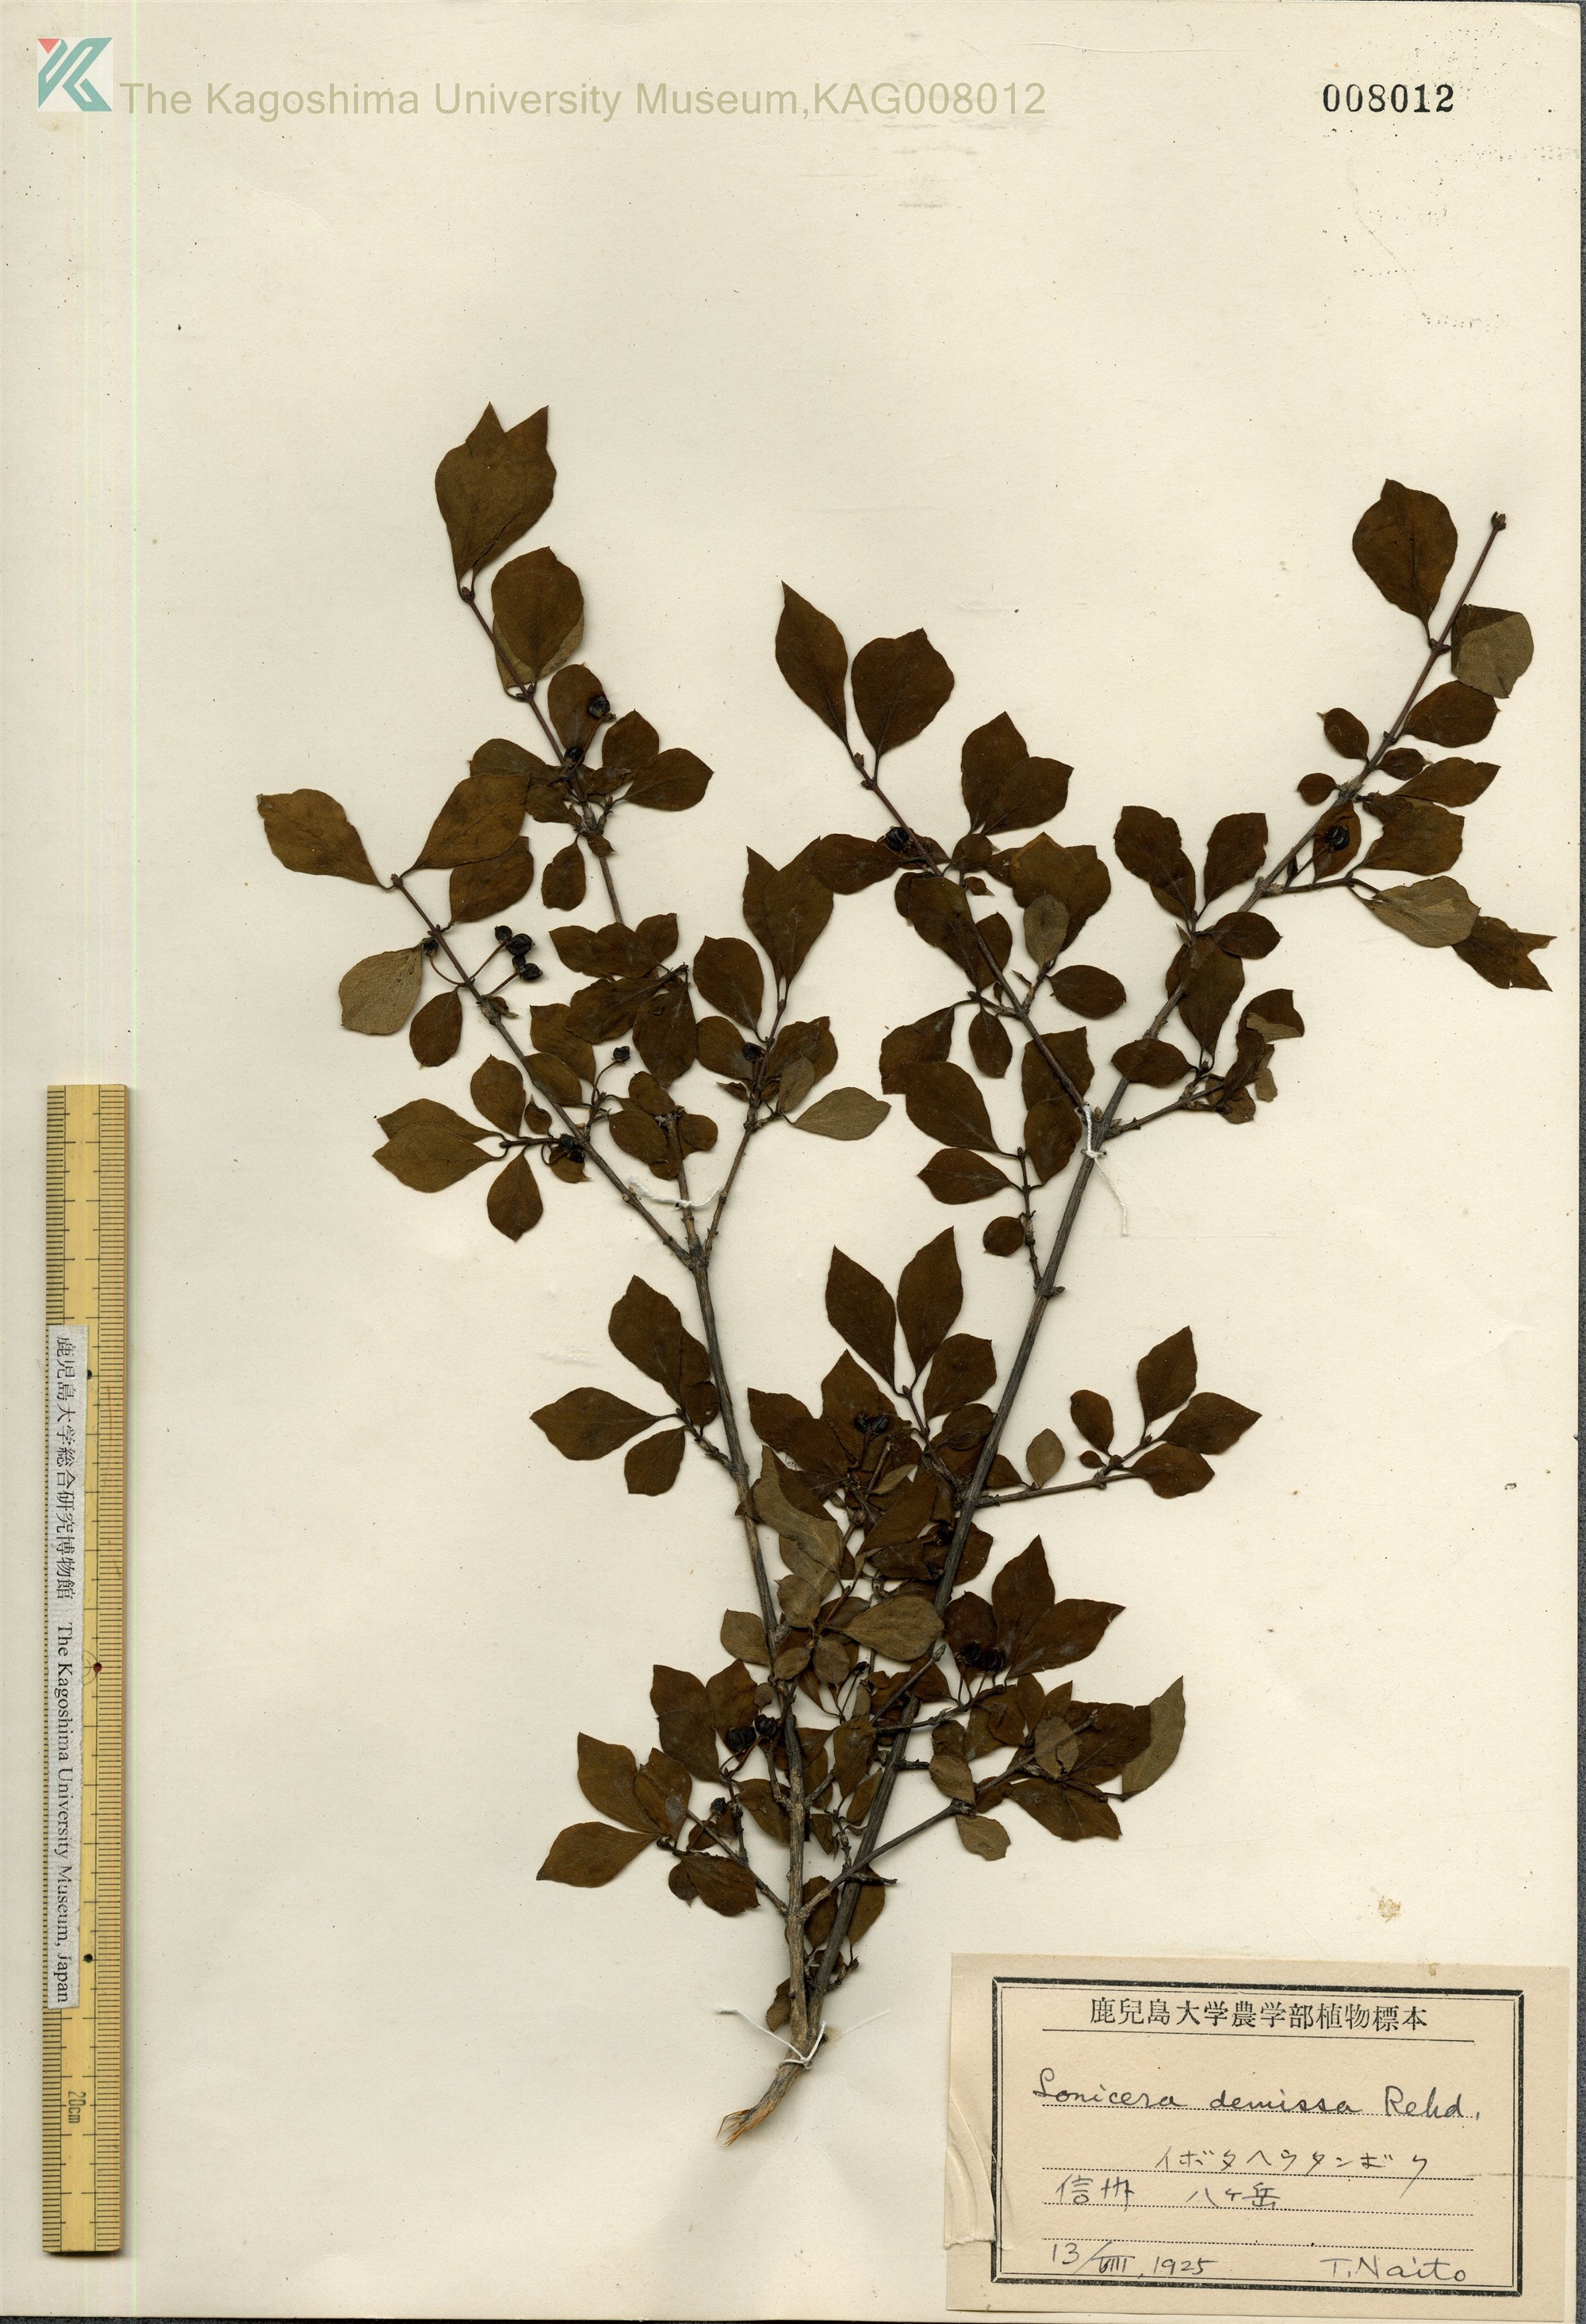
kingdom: Plantae
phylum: Tracheophyta
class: Magnoliopsida
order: Dipsacales
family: Caprifoliaceae
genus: Lonicera
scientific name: Lonicera demissa
